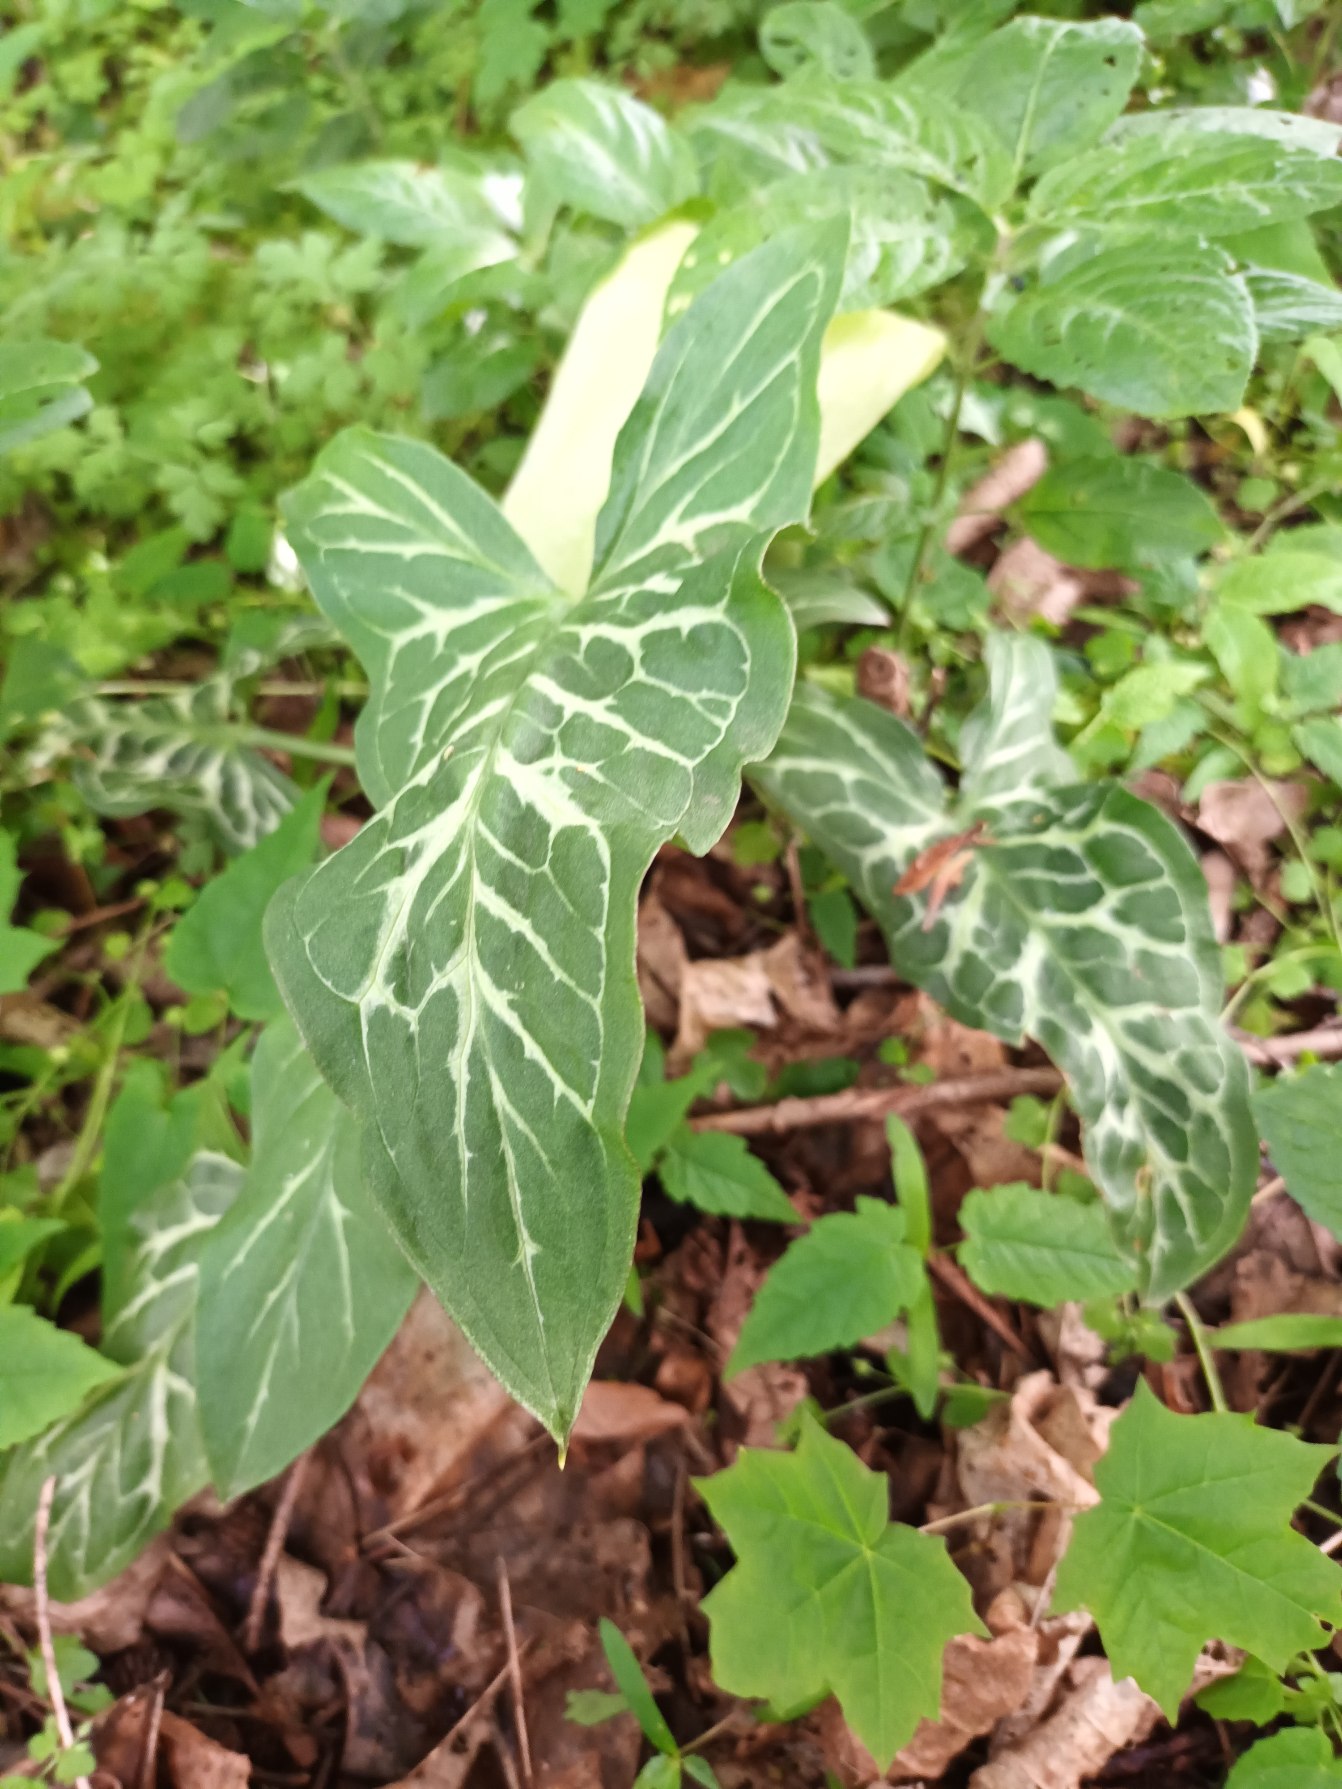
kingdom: Plantae
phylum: Tracheophyta
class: Liliopsida
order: Alismatales
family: Araceae
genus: Arum
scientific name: Arum italicum
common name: Italiensk arum
